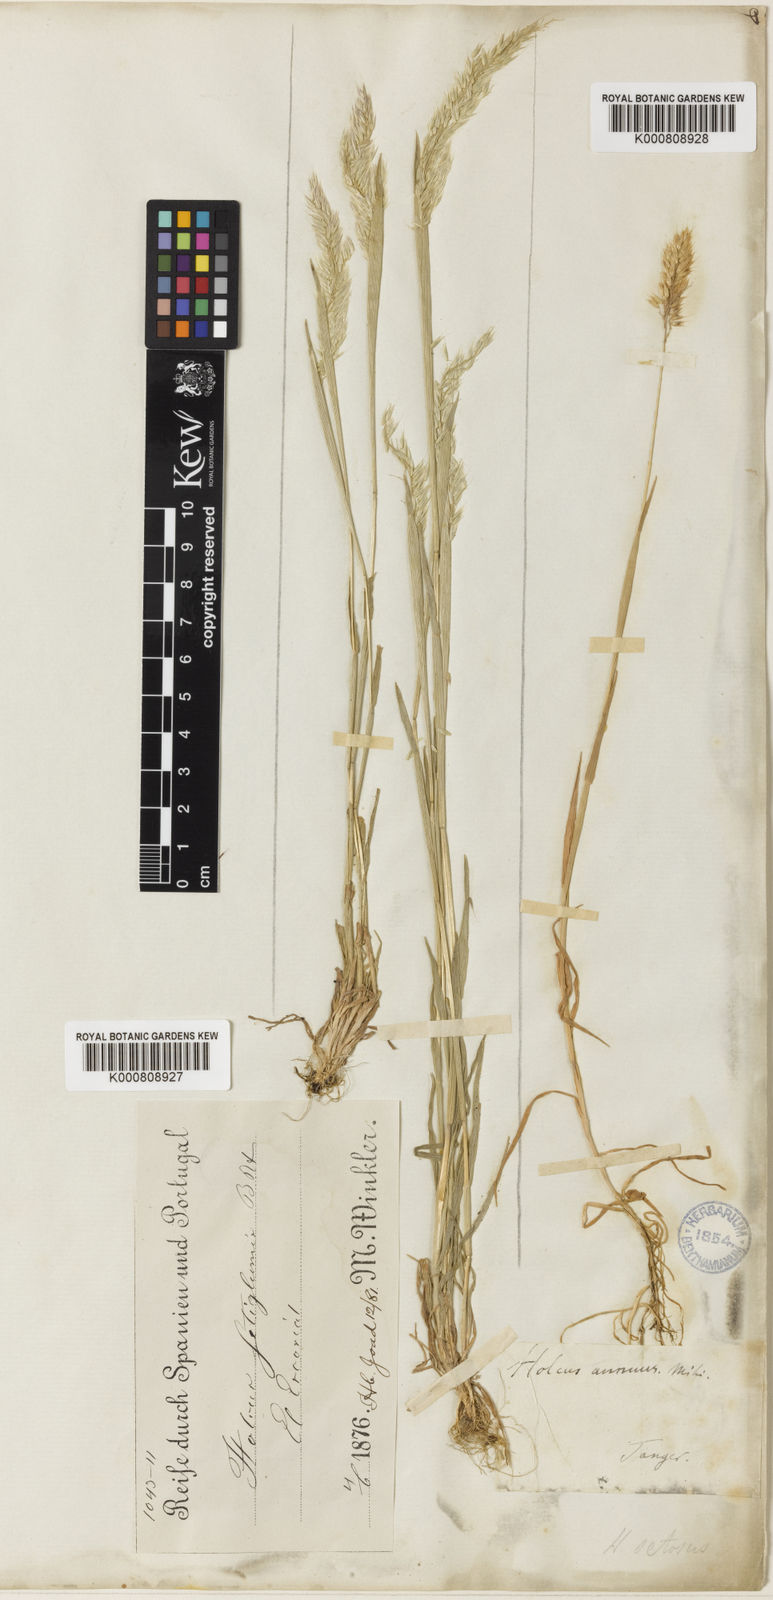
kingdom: Plantae
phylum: Tracheophyta
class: Liliopsida
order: Poales
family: Poaceae
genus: Holcus
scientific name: Holcus annuus
